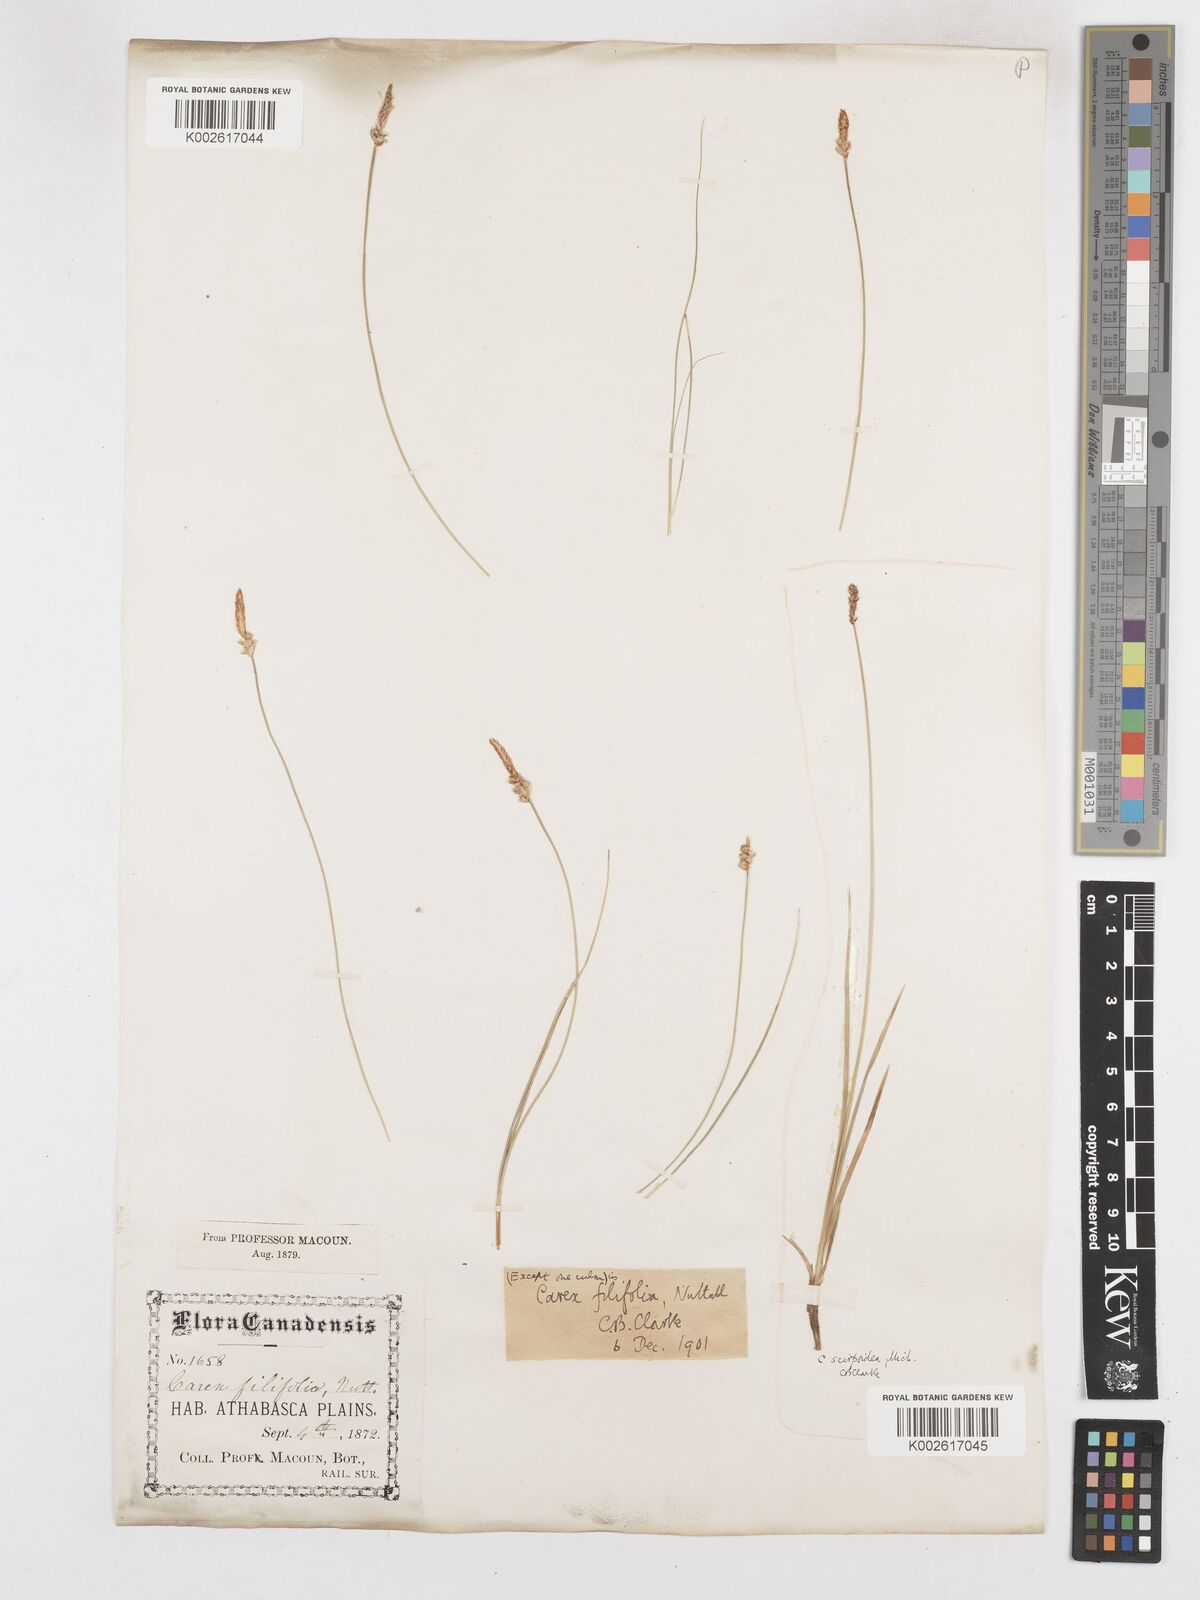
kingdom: Plantae
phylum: Tracheophyta
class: Liliopsida
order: Poales
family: Cyperaceae
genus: Carex
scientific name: Carex filifolia
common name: Threadleaf sedge
